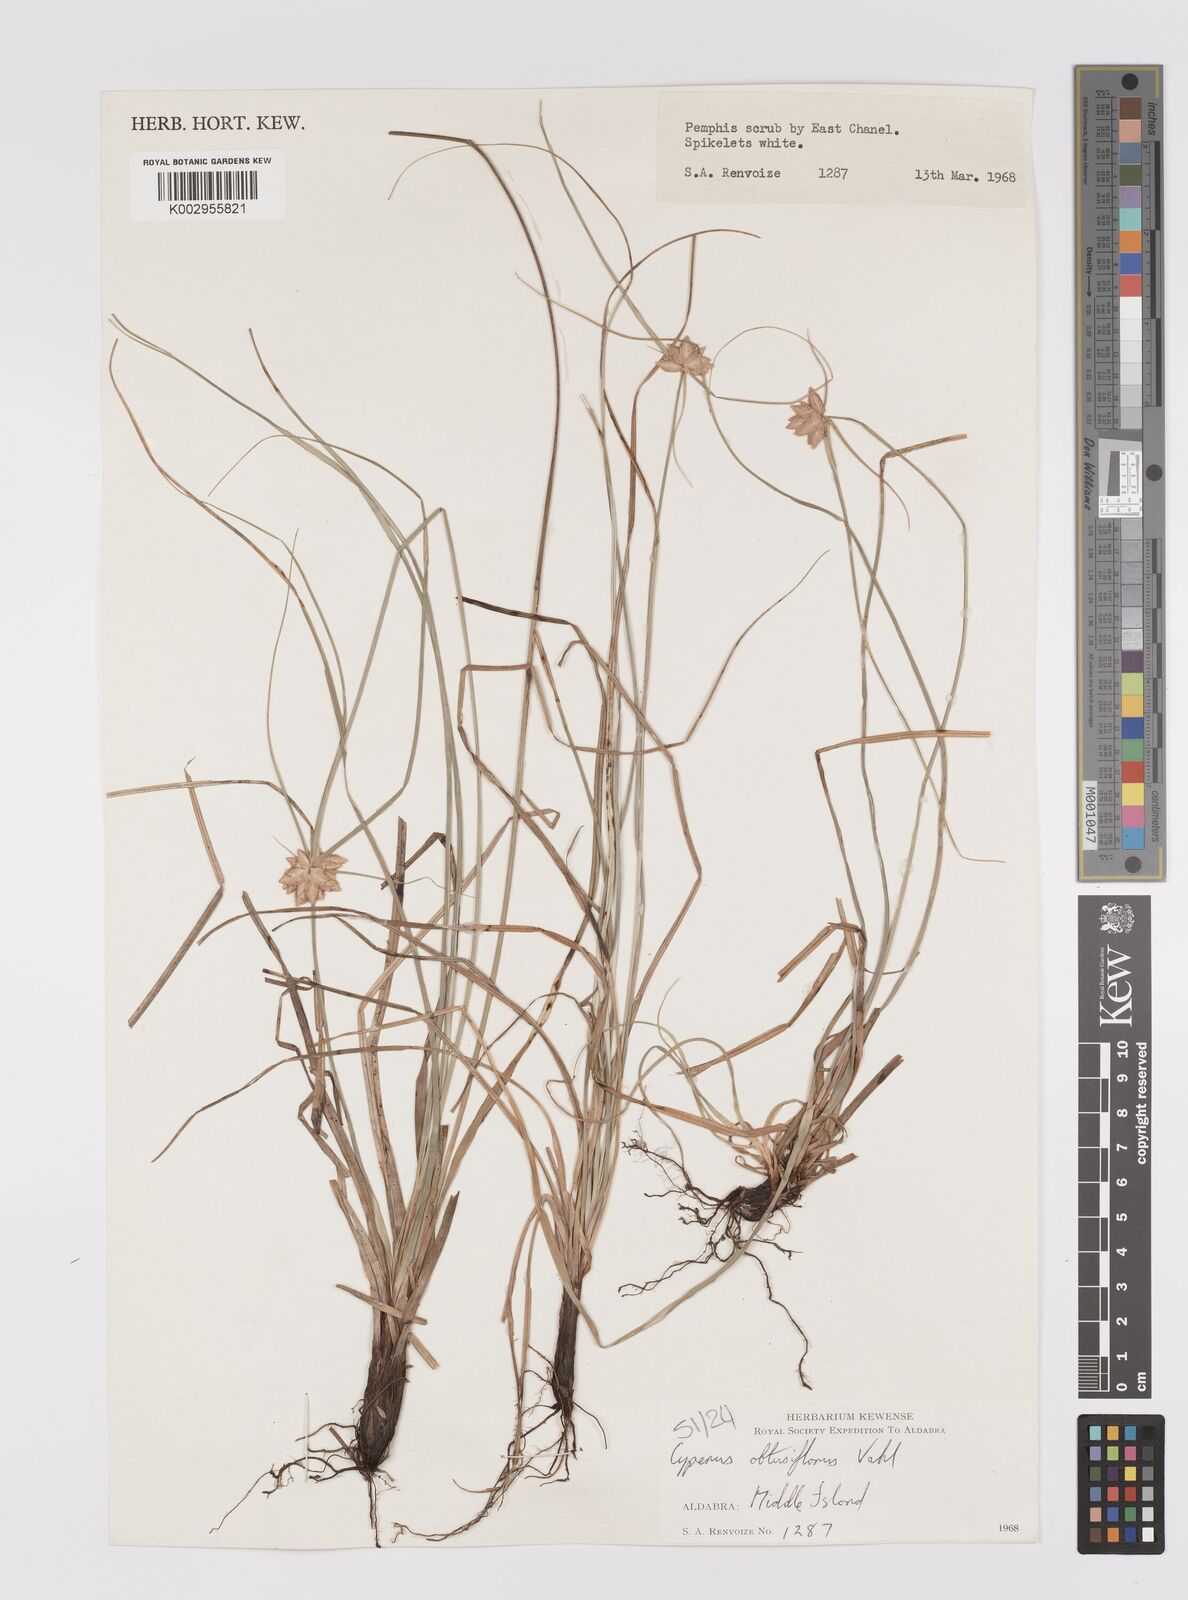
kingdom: Plantae
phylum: Tracheophyta
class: Liliopsida
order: Poales
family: Cyperaceae
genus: Cyperus
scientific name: Cyperus niveus
